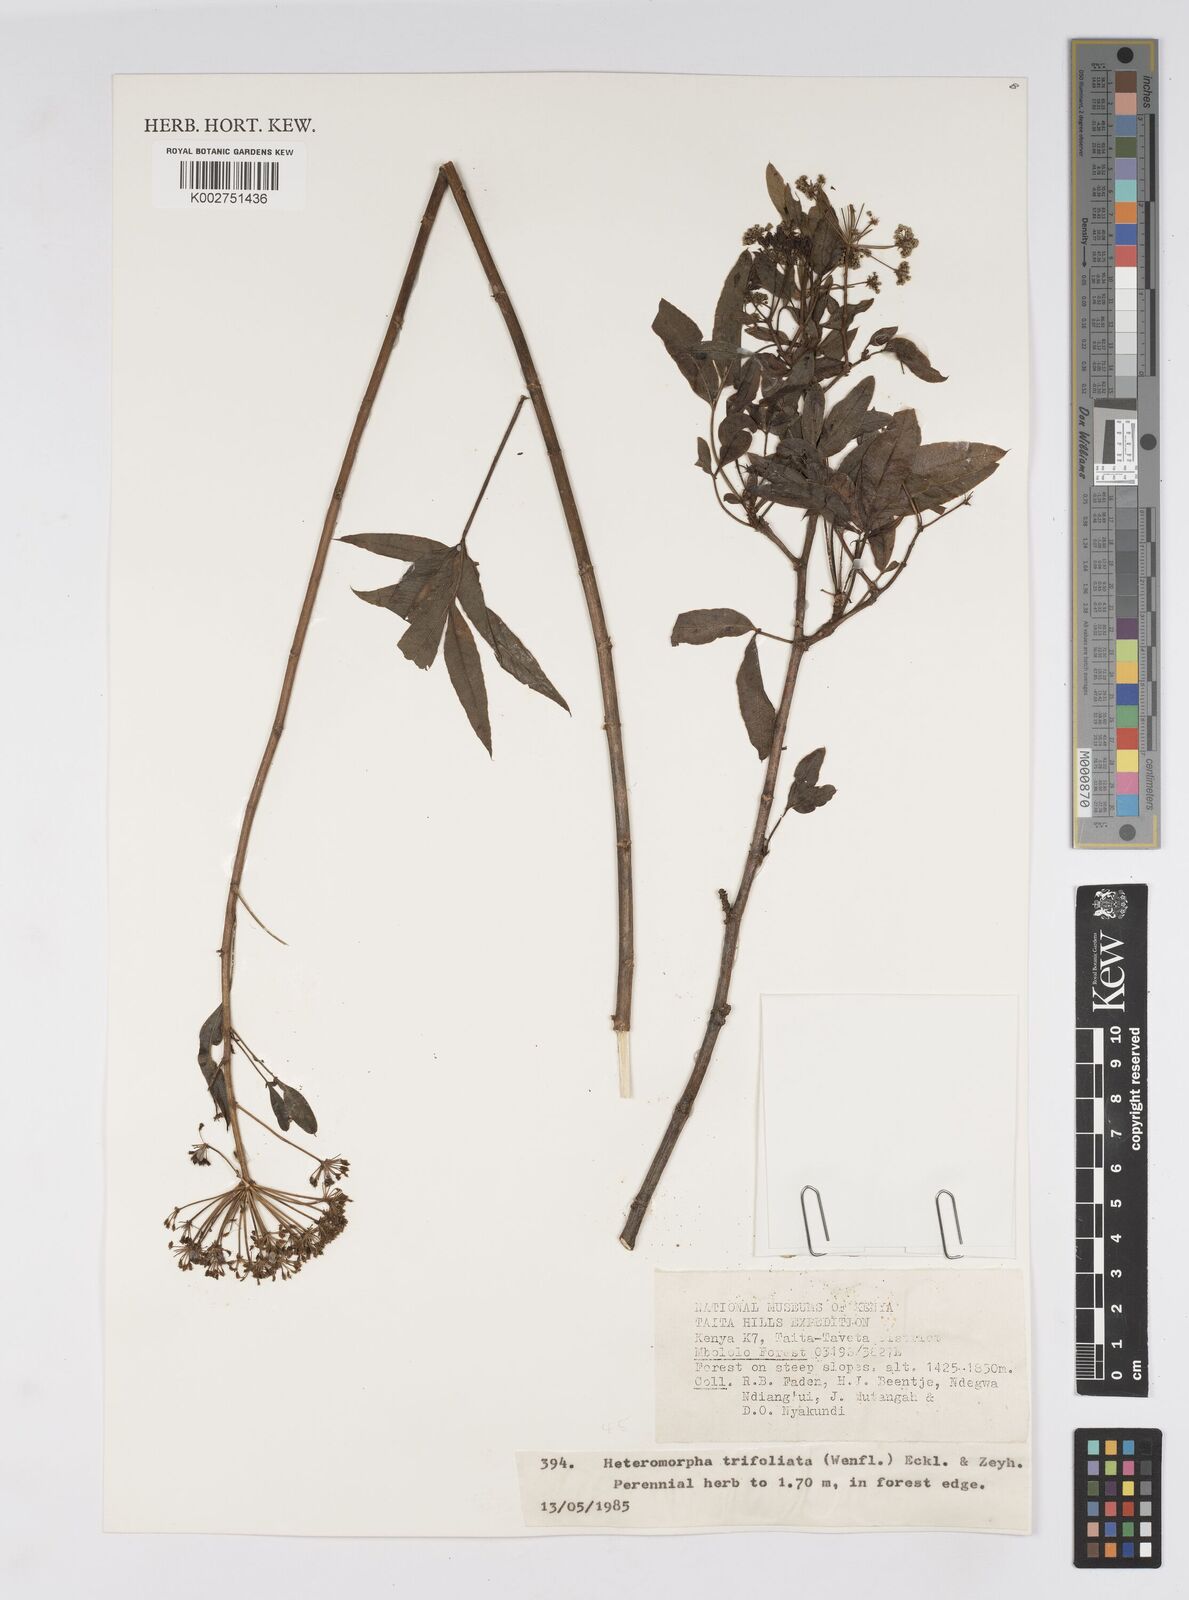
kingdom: Plantae
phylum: Tracheophyta
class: Magnoliopsida
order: Apiales
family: Apiaceae
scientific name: Apiaceae
